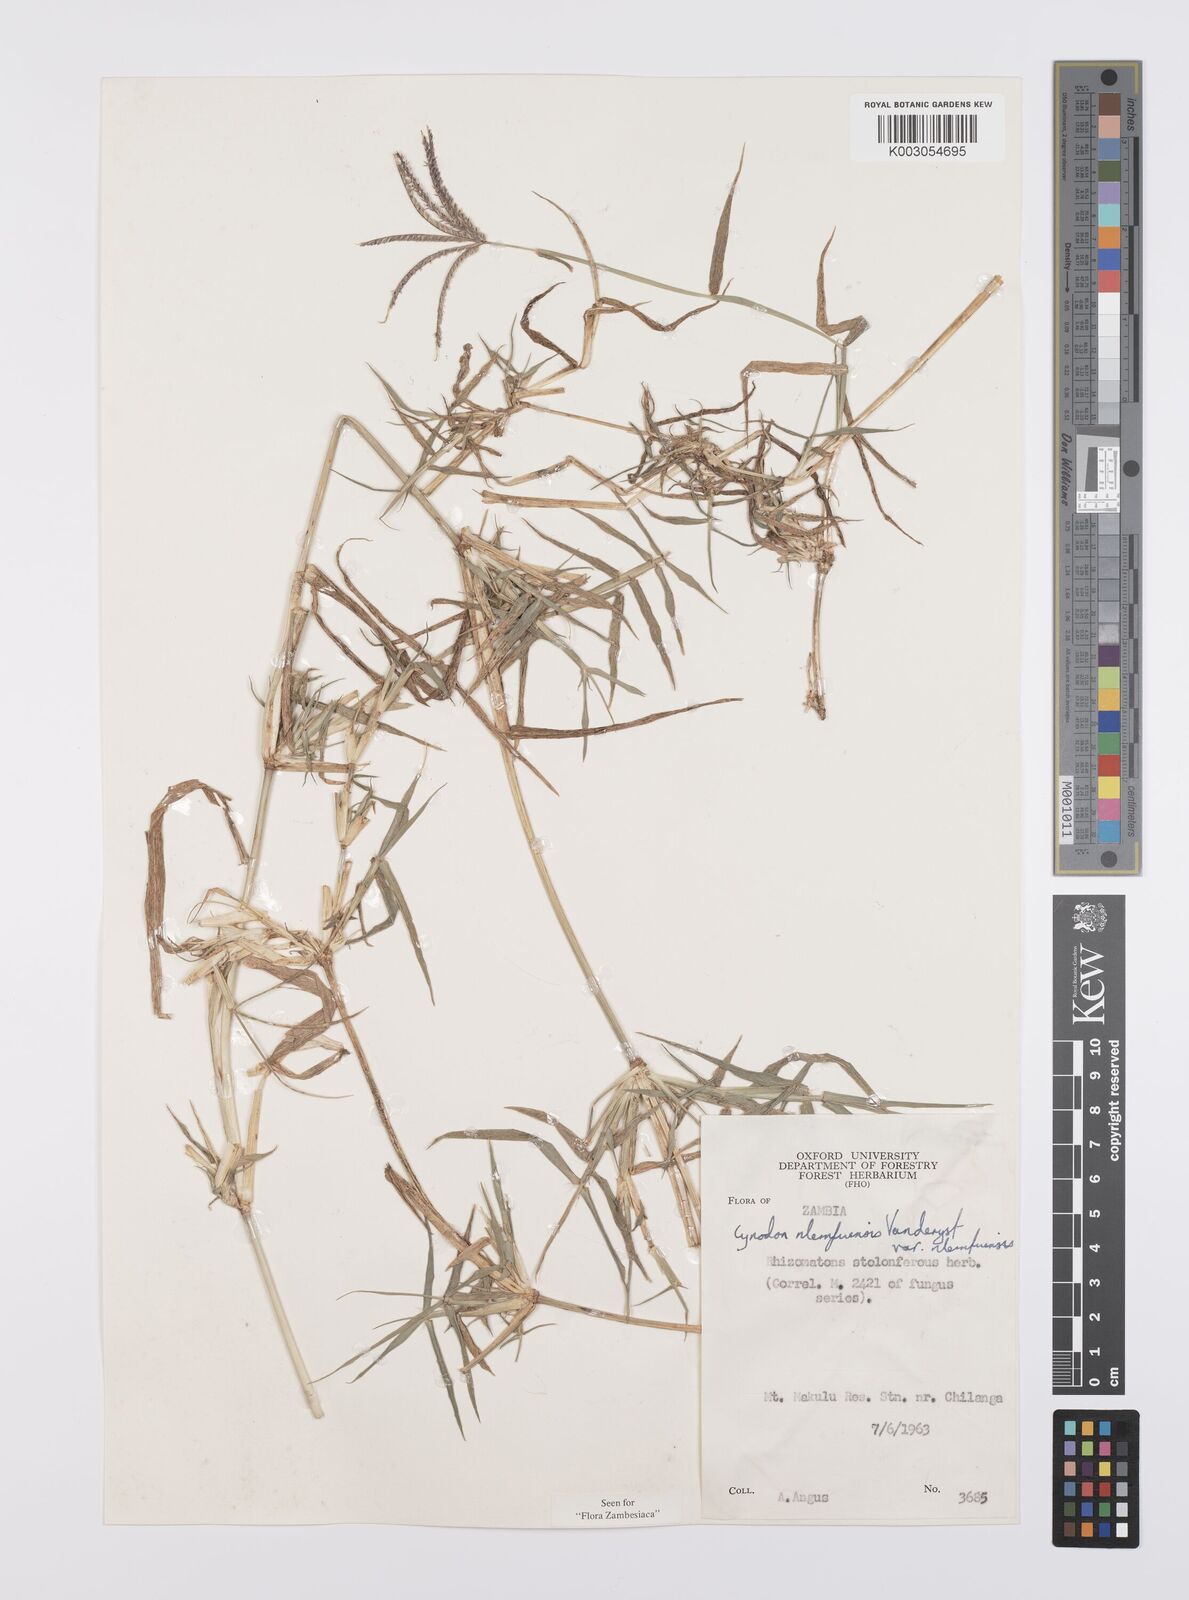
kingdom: Plantae
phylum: Tracheophyta
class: Liliopsida
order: Poales
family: Poaceae
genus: Cynodon
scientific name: Cynodon nlemfuensis
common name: African bermudagrass
